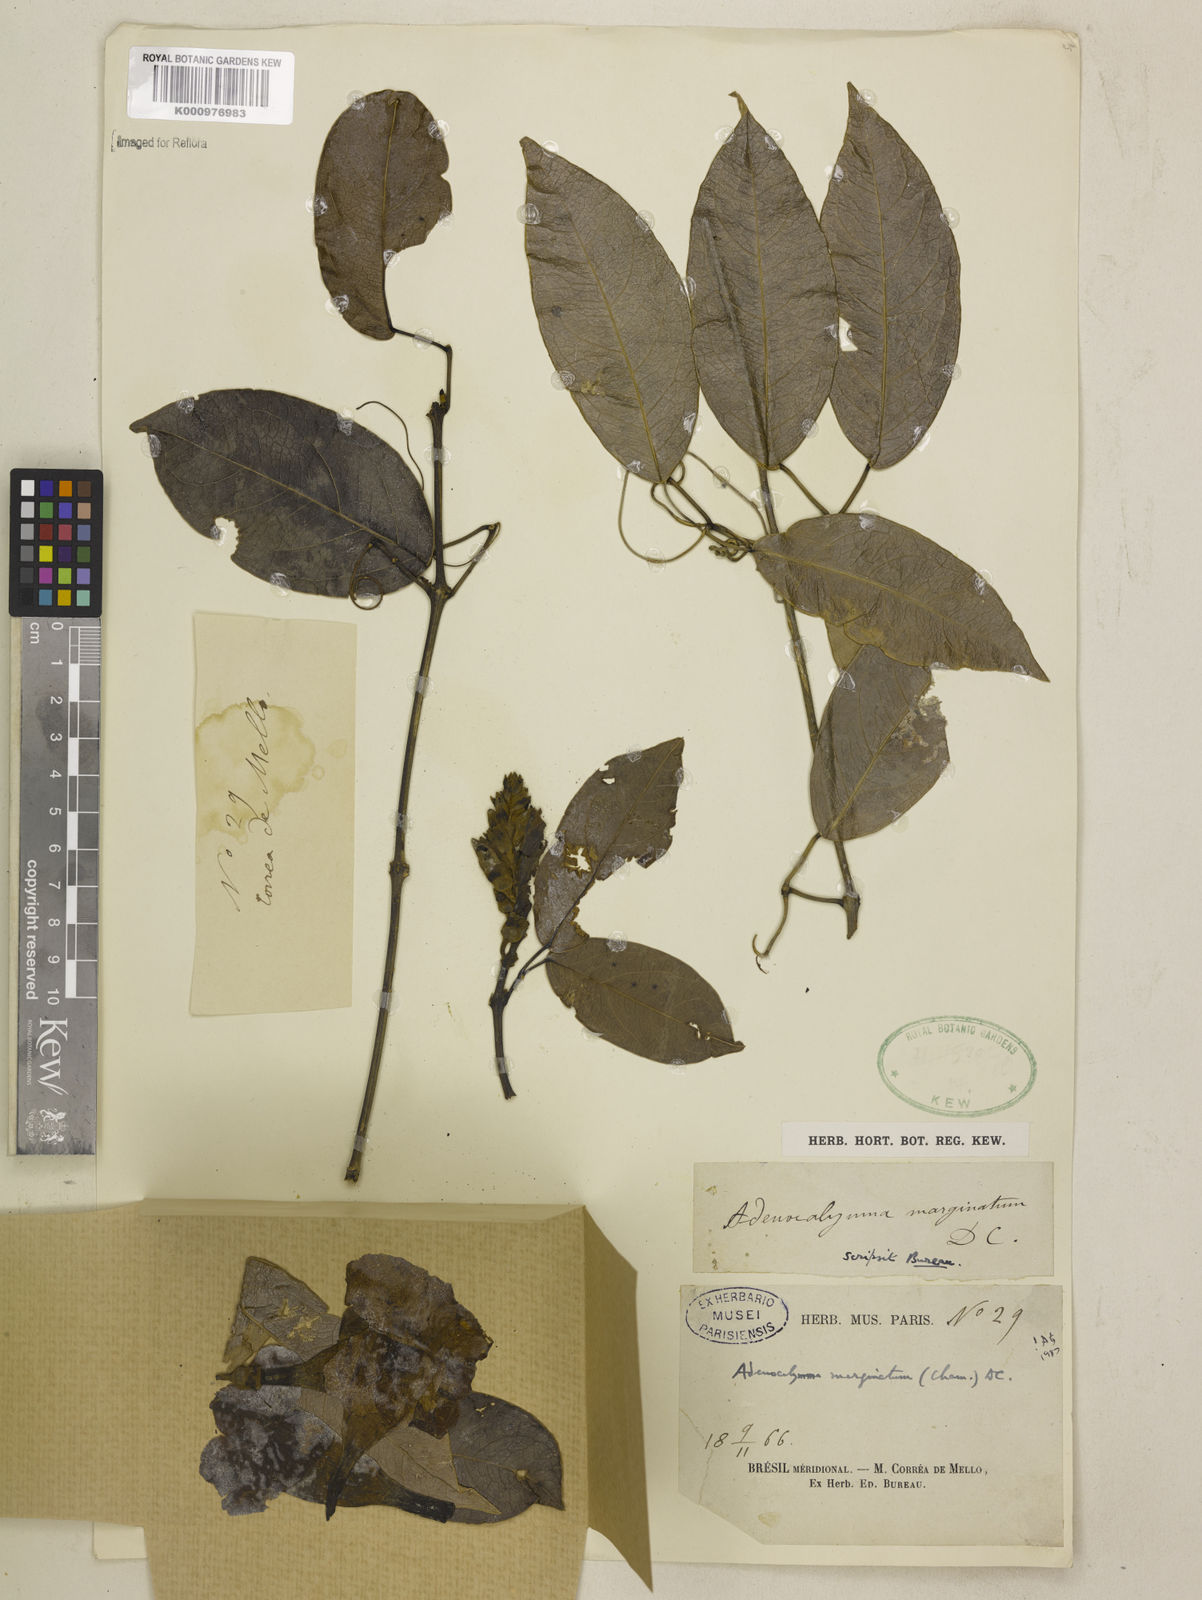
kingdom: Plantae
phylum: Tracheophyta
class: Magnoliopsida
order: Lamiales
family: Bignoniaceae
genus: Adenocalymma
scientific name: Adenocalymma marginatum
